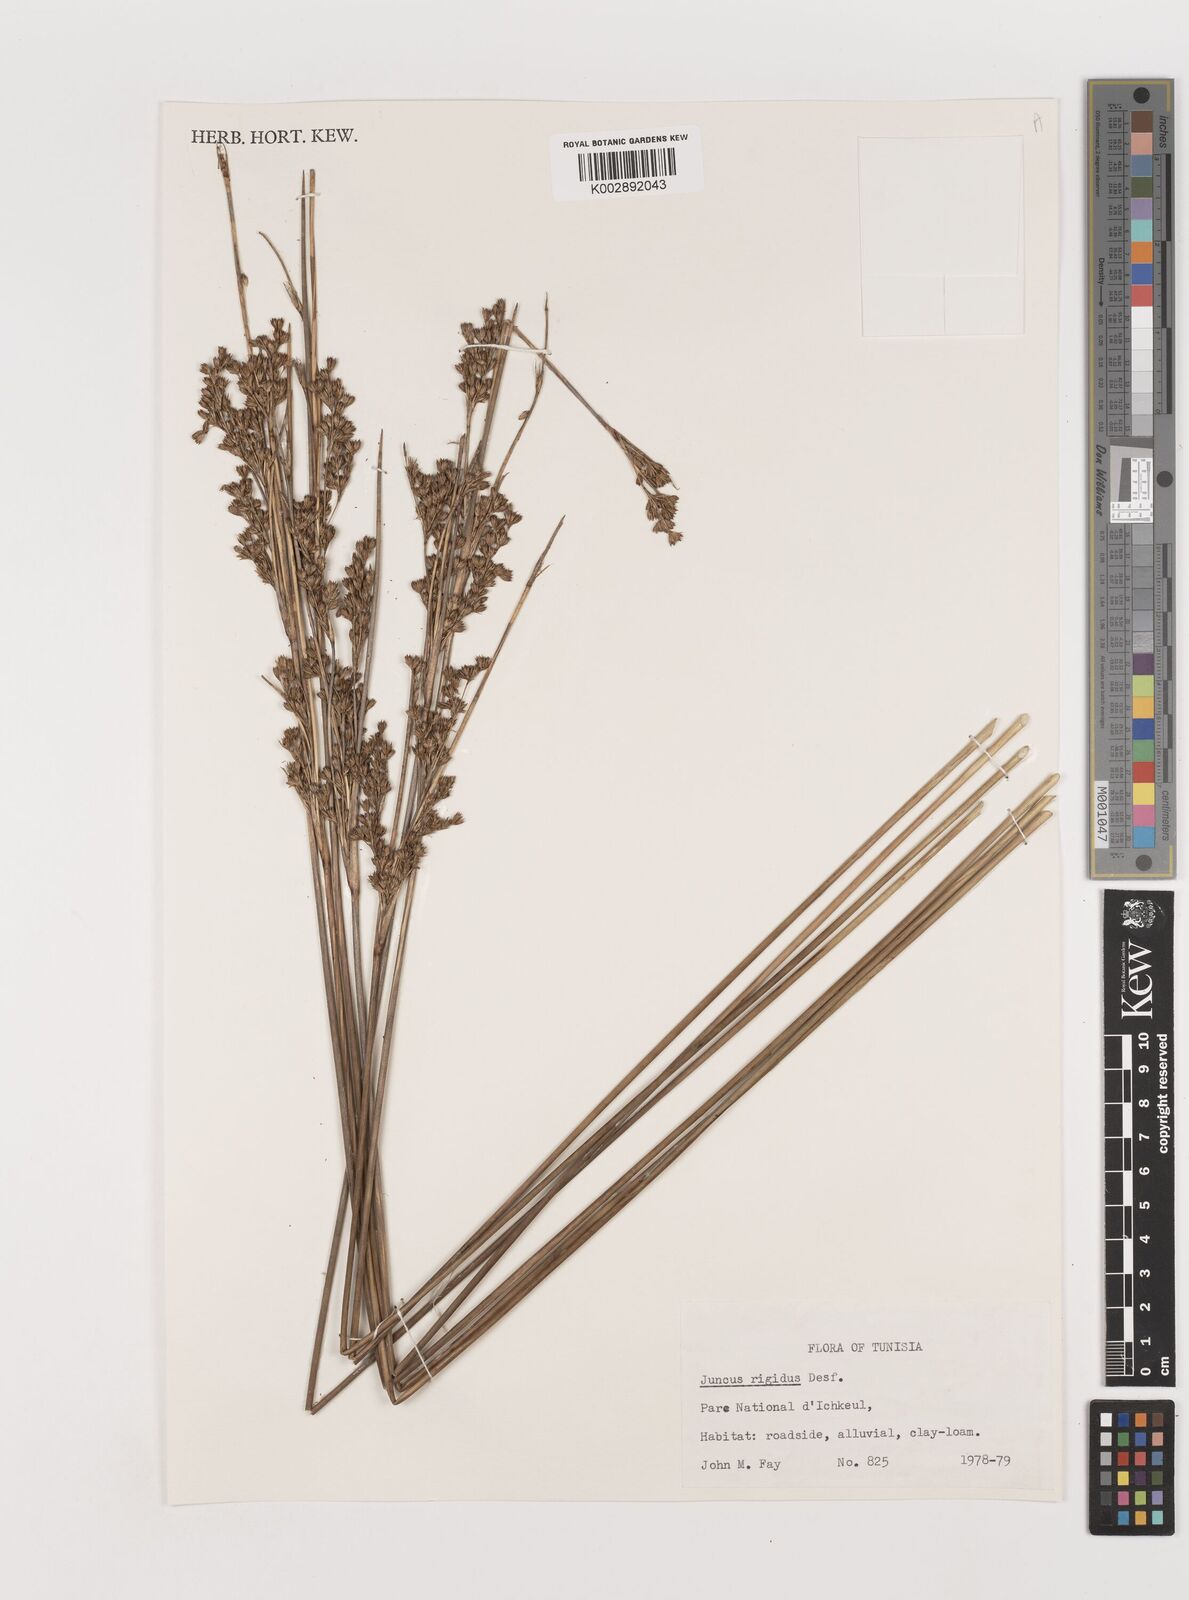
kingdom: Plantae
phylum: Tracheophyta
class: Liliopsida
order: Poales
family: Juncaceae
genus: Juncus
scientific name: Juncus rigidus
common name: Hard sea rush
